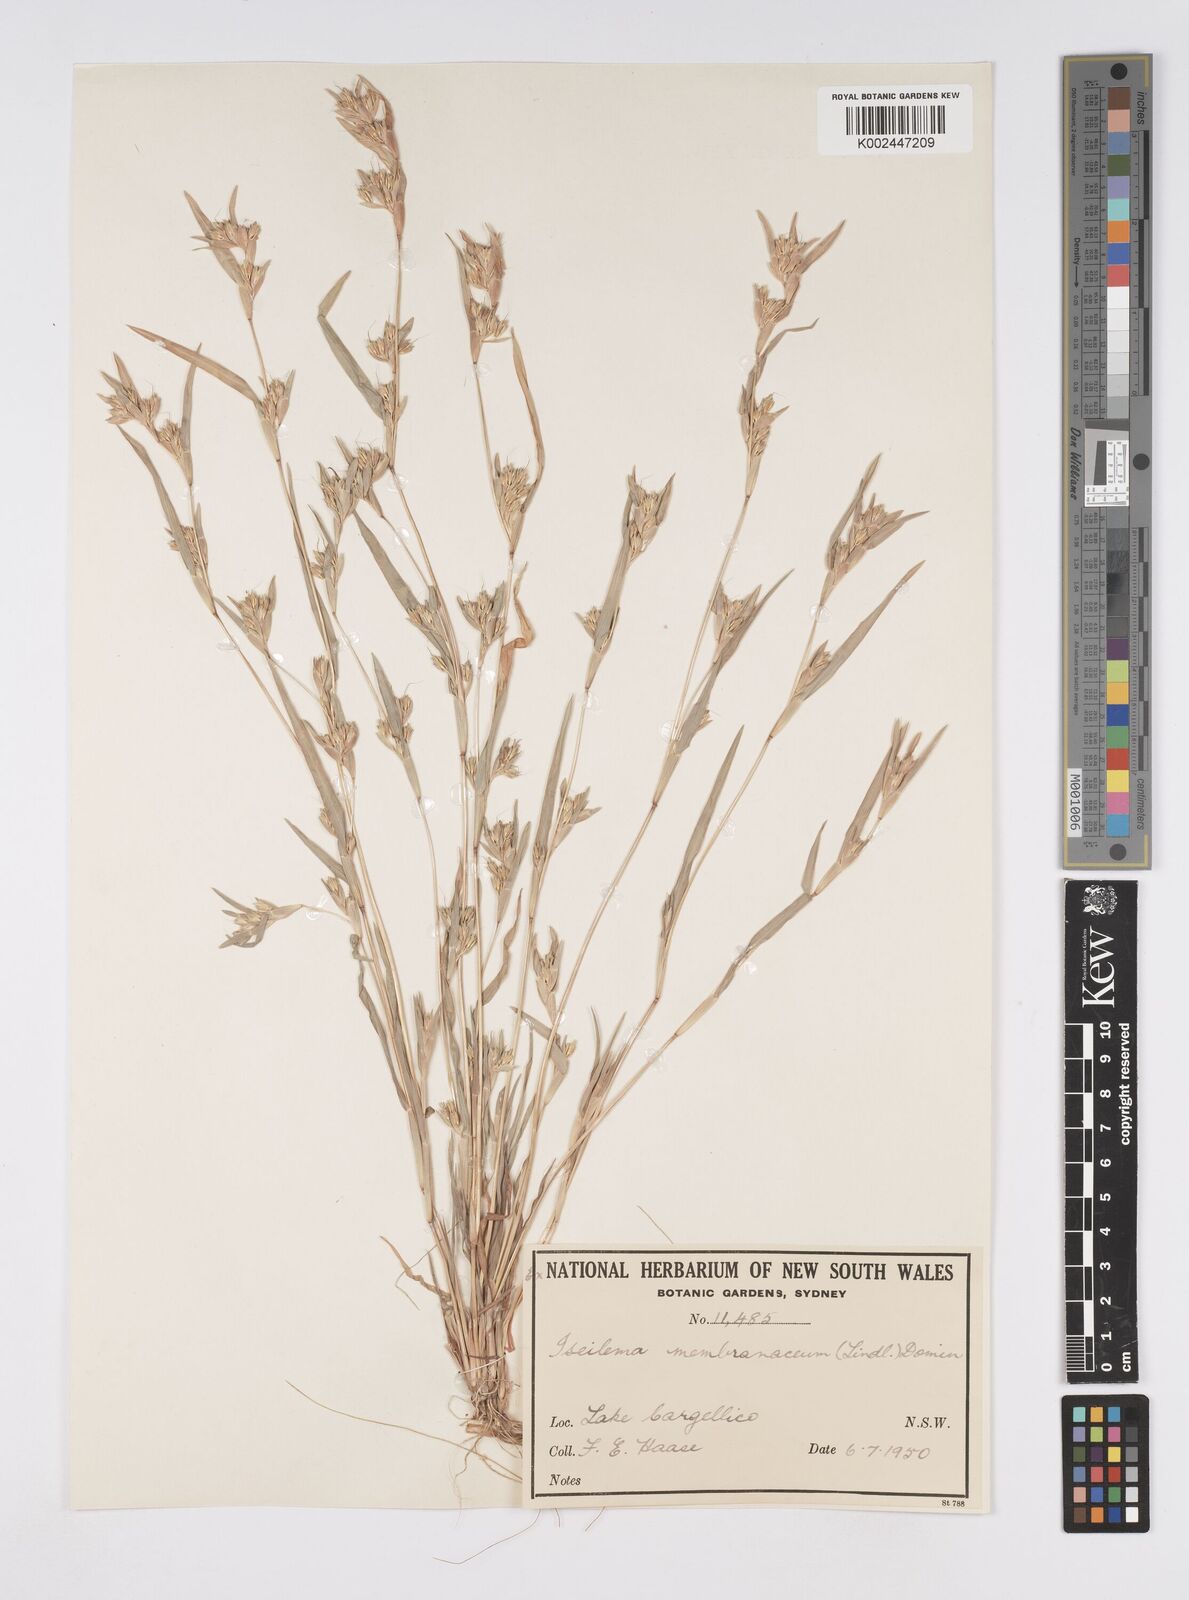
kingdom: Plantae
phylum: Tracheophyta
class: Liliopsida
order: Poales
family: Poaceae
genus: Iseilema
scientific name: Iseilema membranaceum
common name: Small flinders grass
